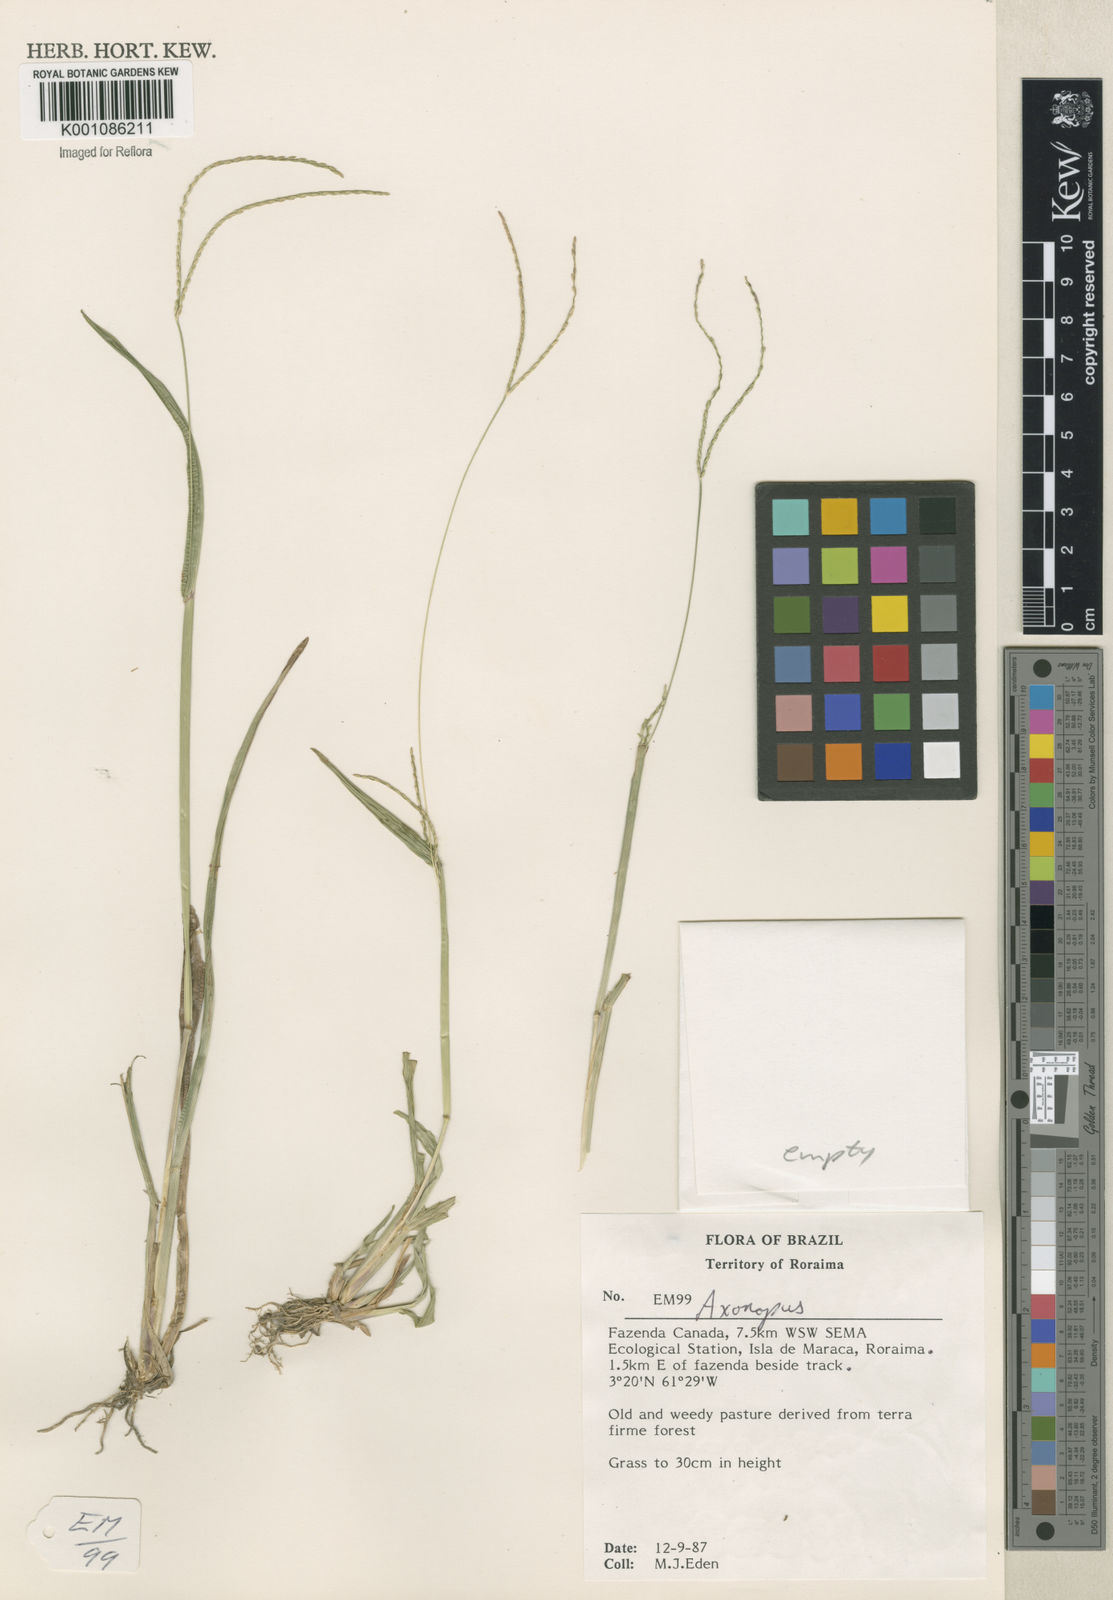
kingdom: Plantae
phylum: Tracheophyta
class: Liliopsida
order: Poales
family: Poaceae
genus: Axonopus
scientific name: Axonopus
